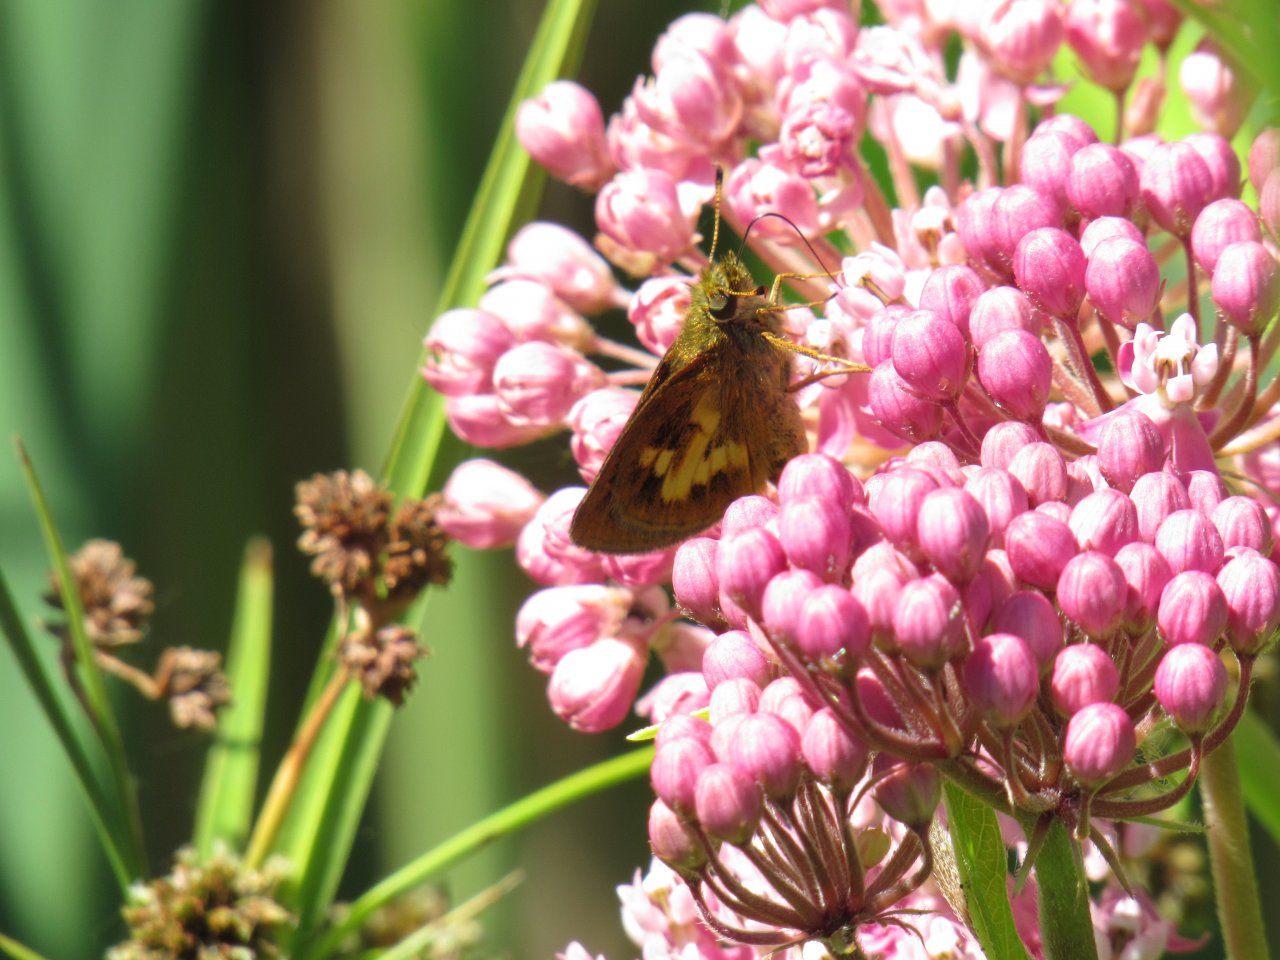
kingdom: Animalia
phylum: Arthropoda
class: Insecta
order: Lepidoptera
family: Hesperiidae
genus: Poanes
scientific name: Poanes massasoit
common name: Mulberry Wing
